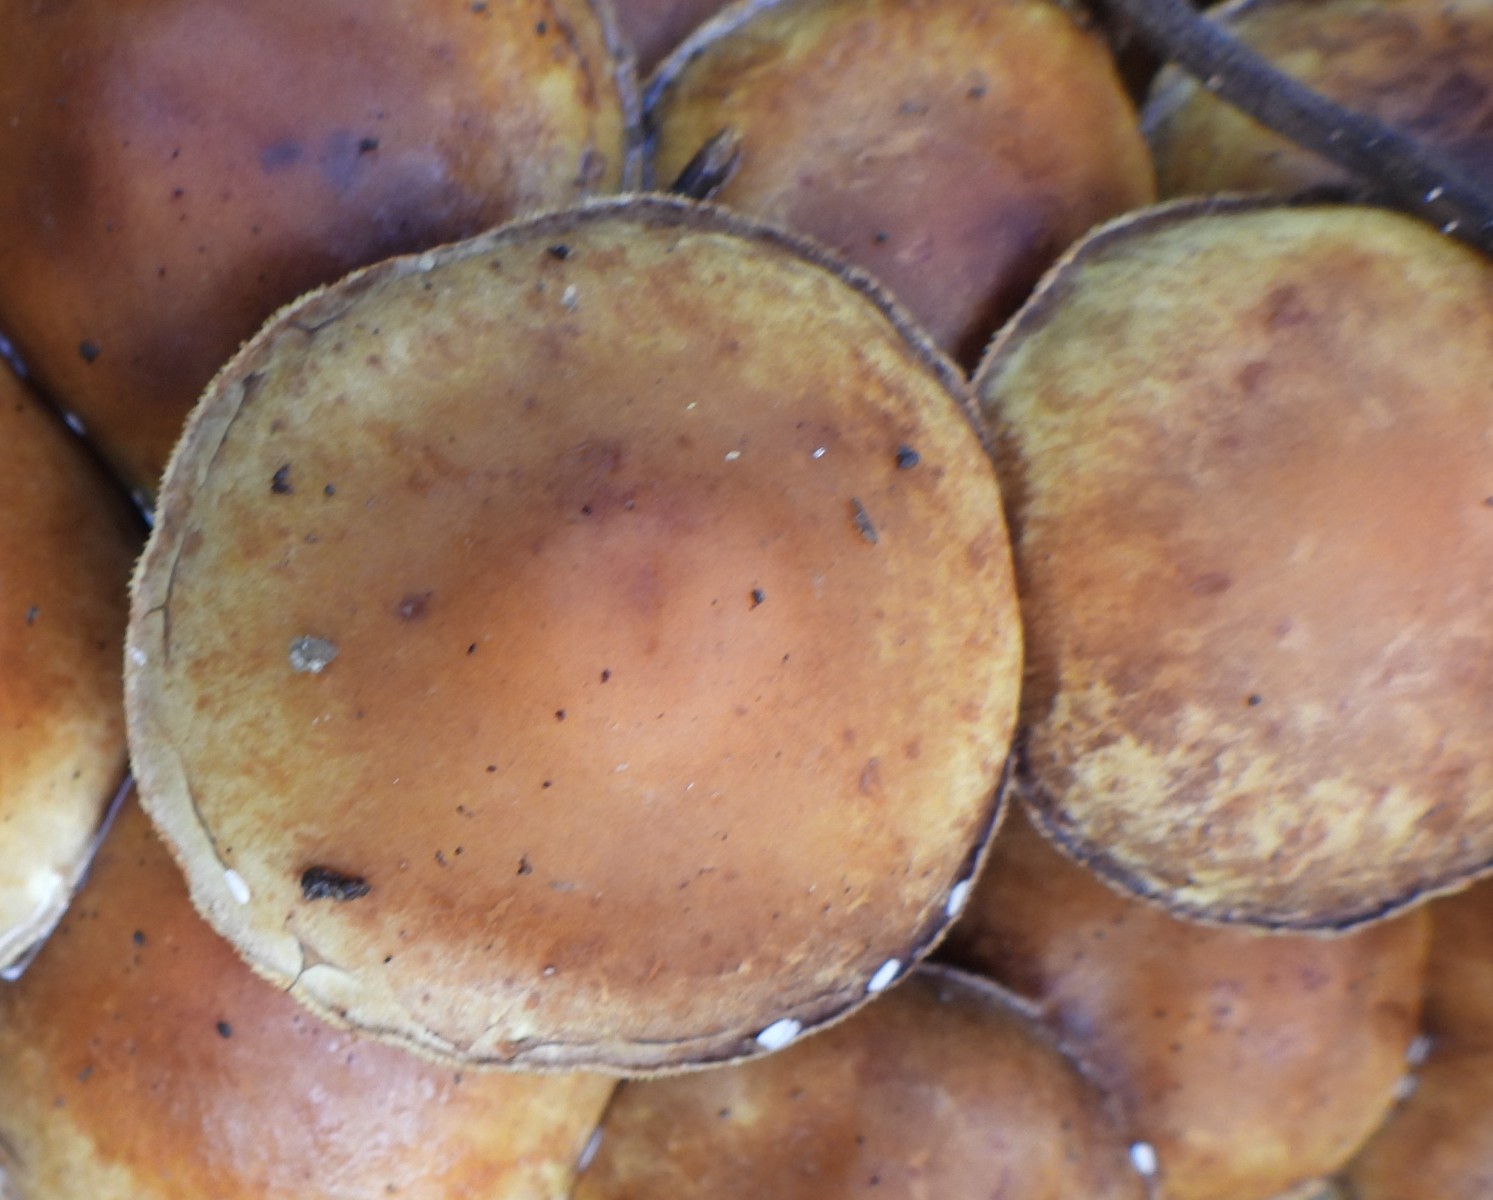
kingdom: Fungi
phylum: Basidiomycota
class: Agaricomycetes
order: Agaricales
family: Strophariaceae
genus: Hypholoma
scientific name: Hypholoma fasciculare
